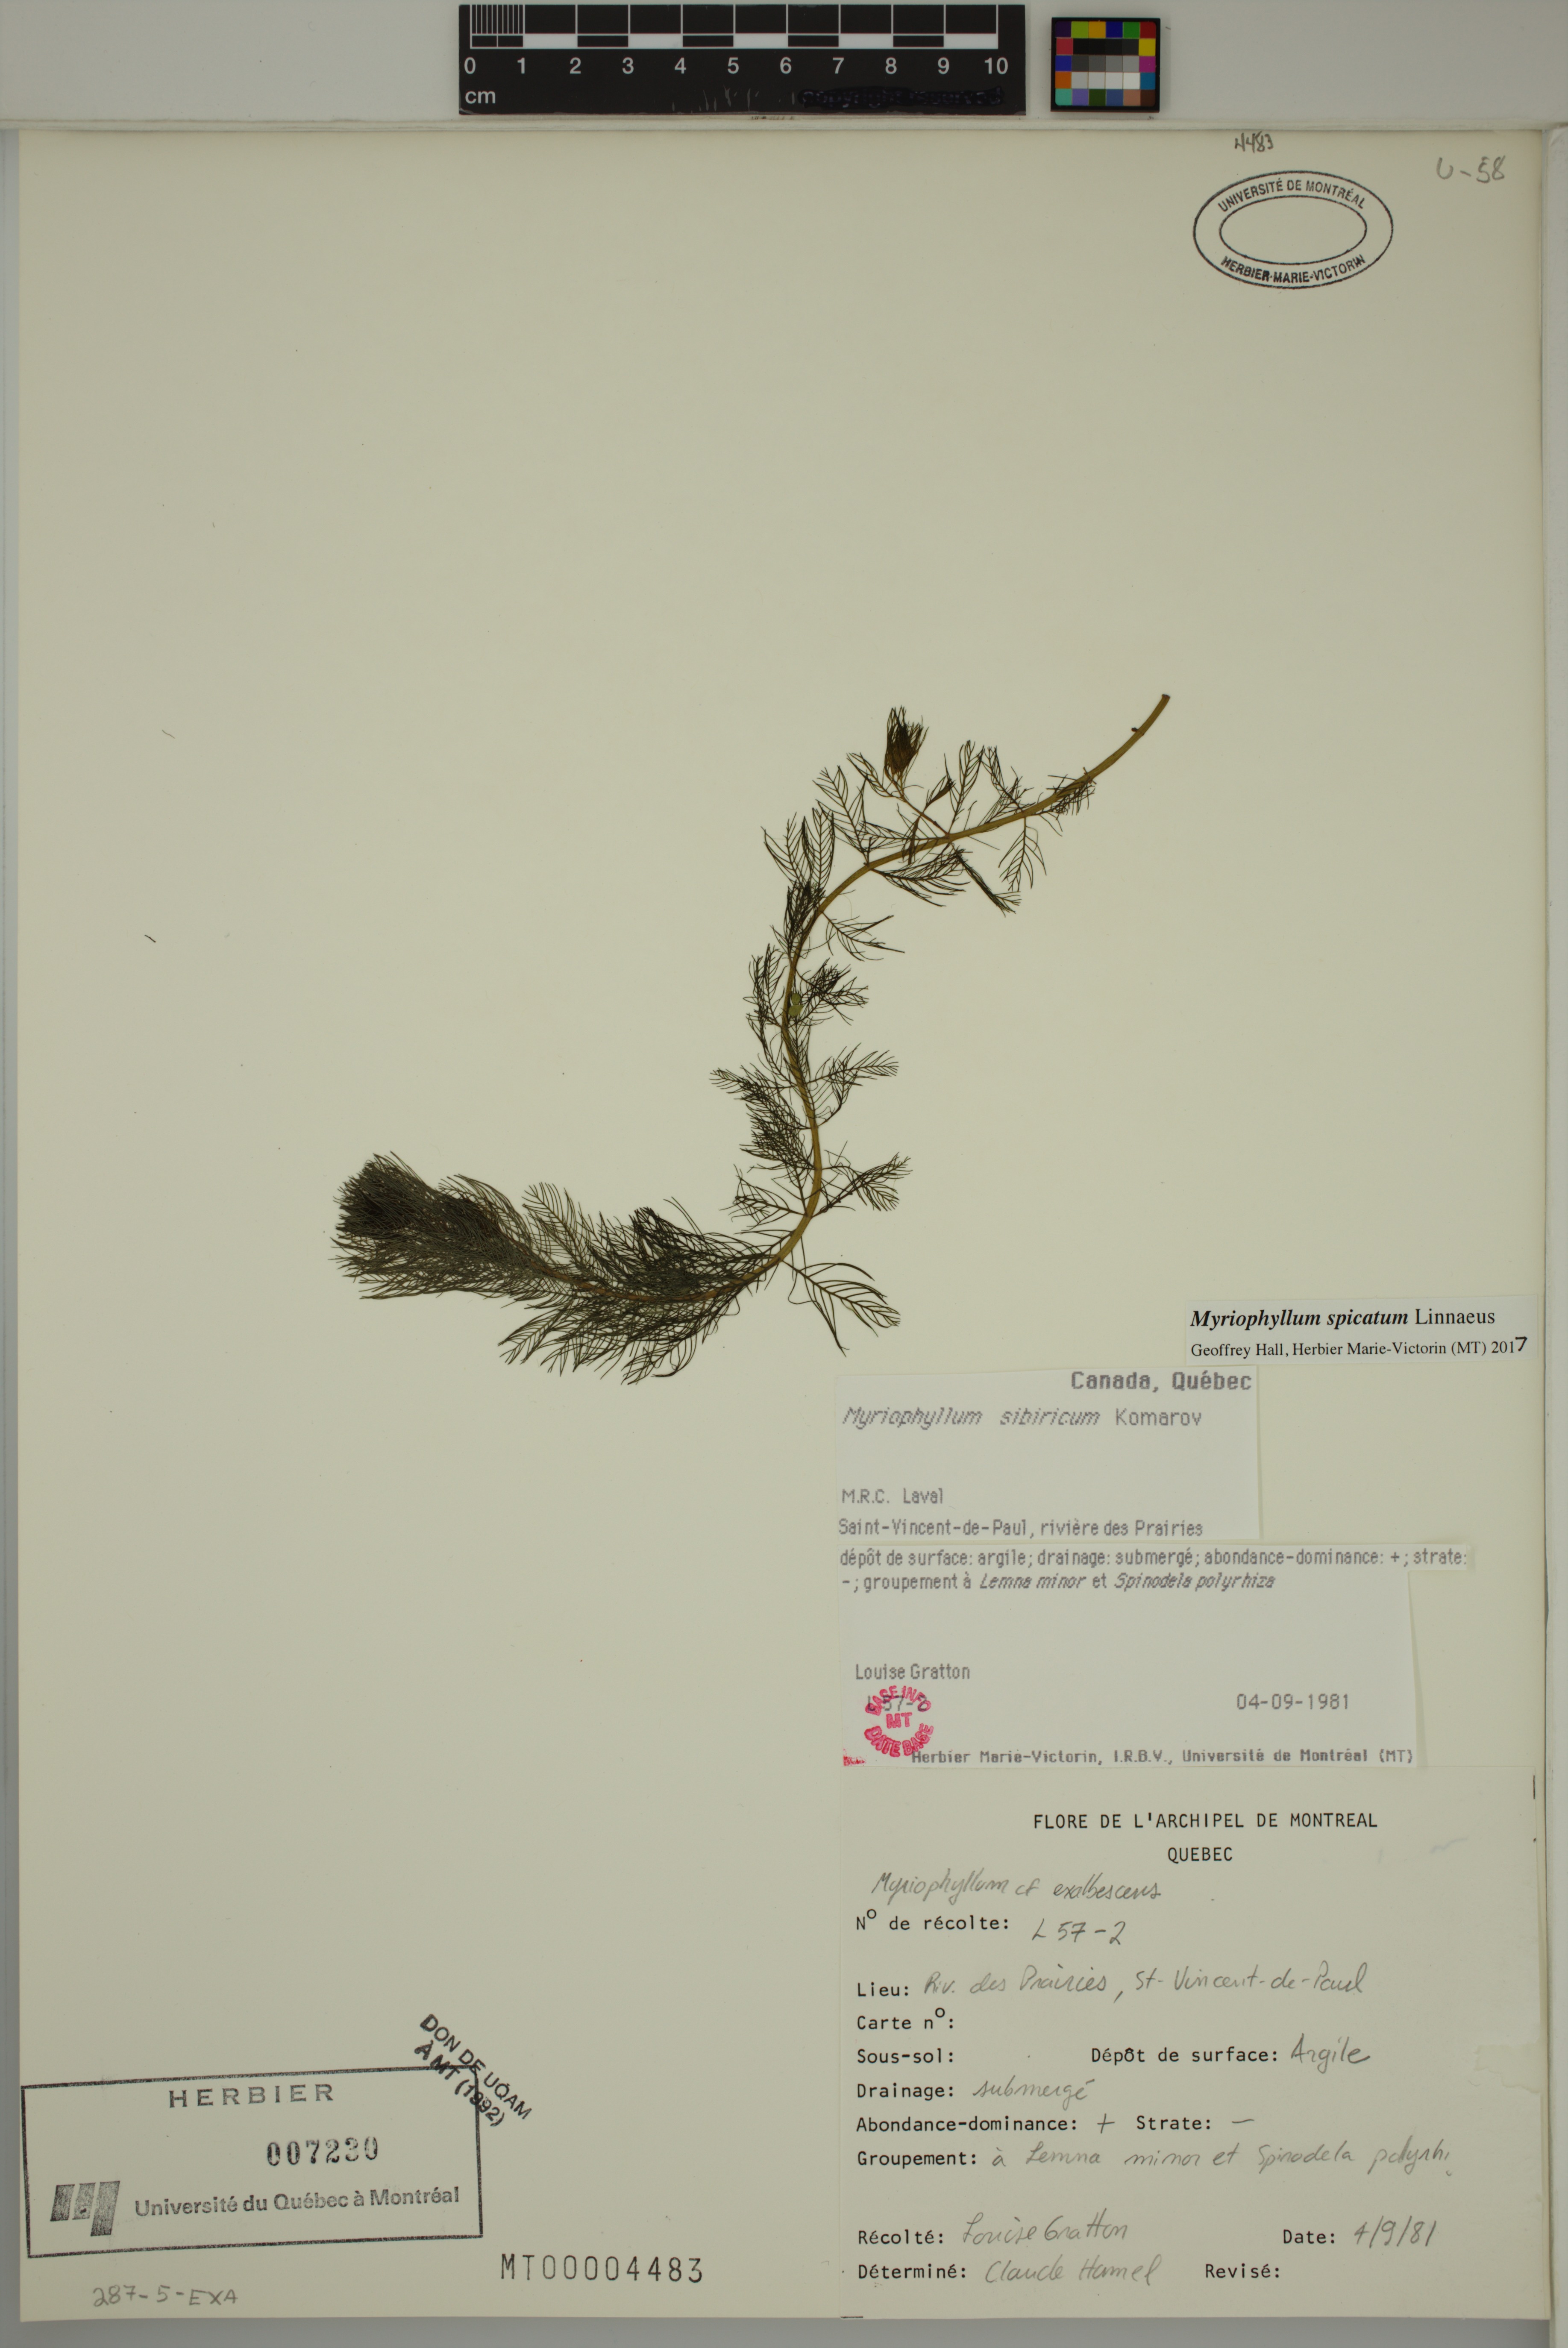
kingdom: Plantae
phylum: Tracheophyta
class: Magnoliopsida
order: Saxifragales
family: Haloragaceae
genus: Myriophyllum
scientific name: Myriophyllum spicatum
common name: Spiked water-milfoil
